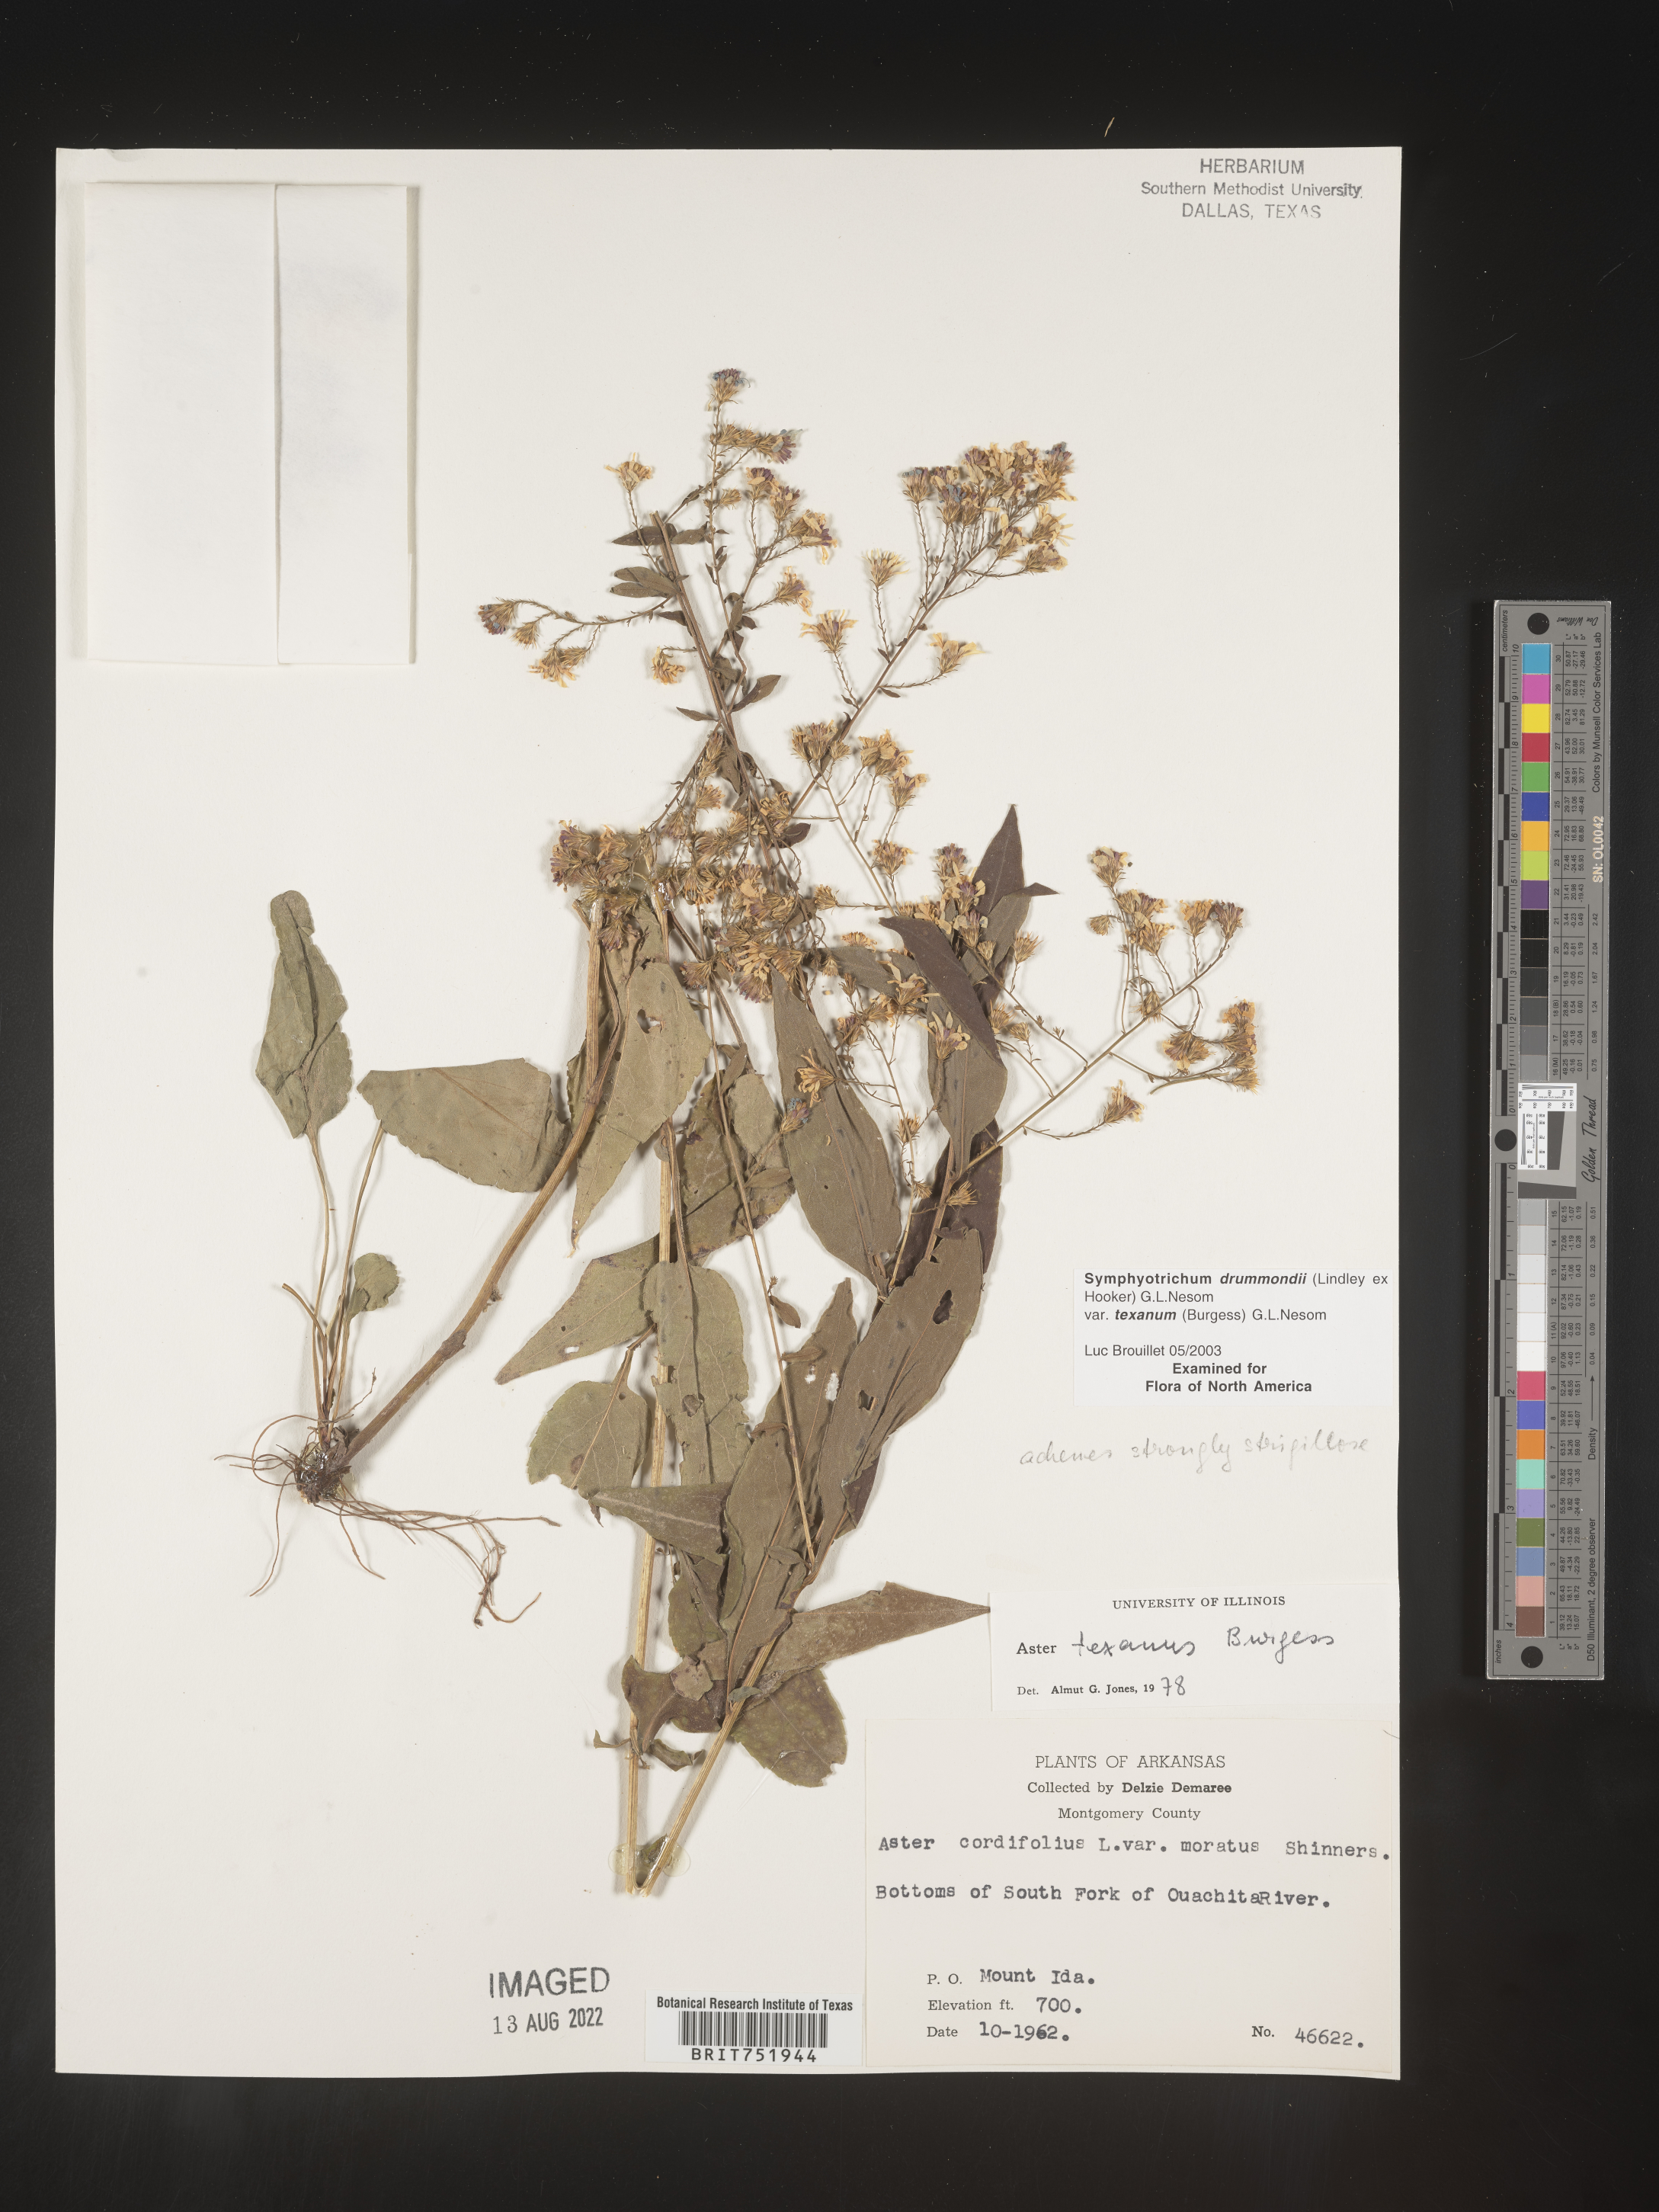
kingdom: Plantae
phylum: Tracheophyta
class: Magnoliopsida
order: Asterales
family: Asteraceae
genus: Symphyotrichum
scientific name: Symphyotrichum drummondii
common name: Drummond's aster
